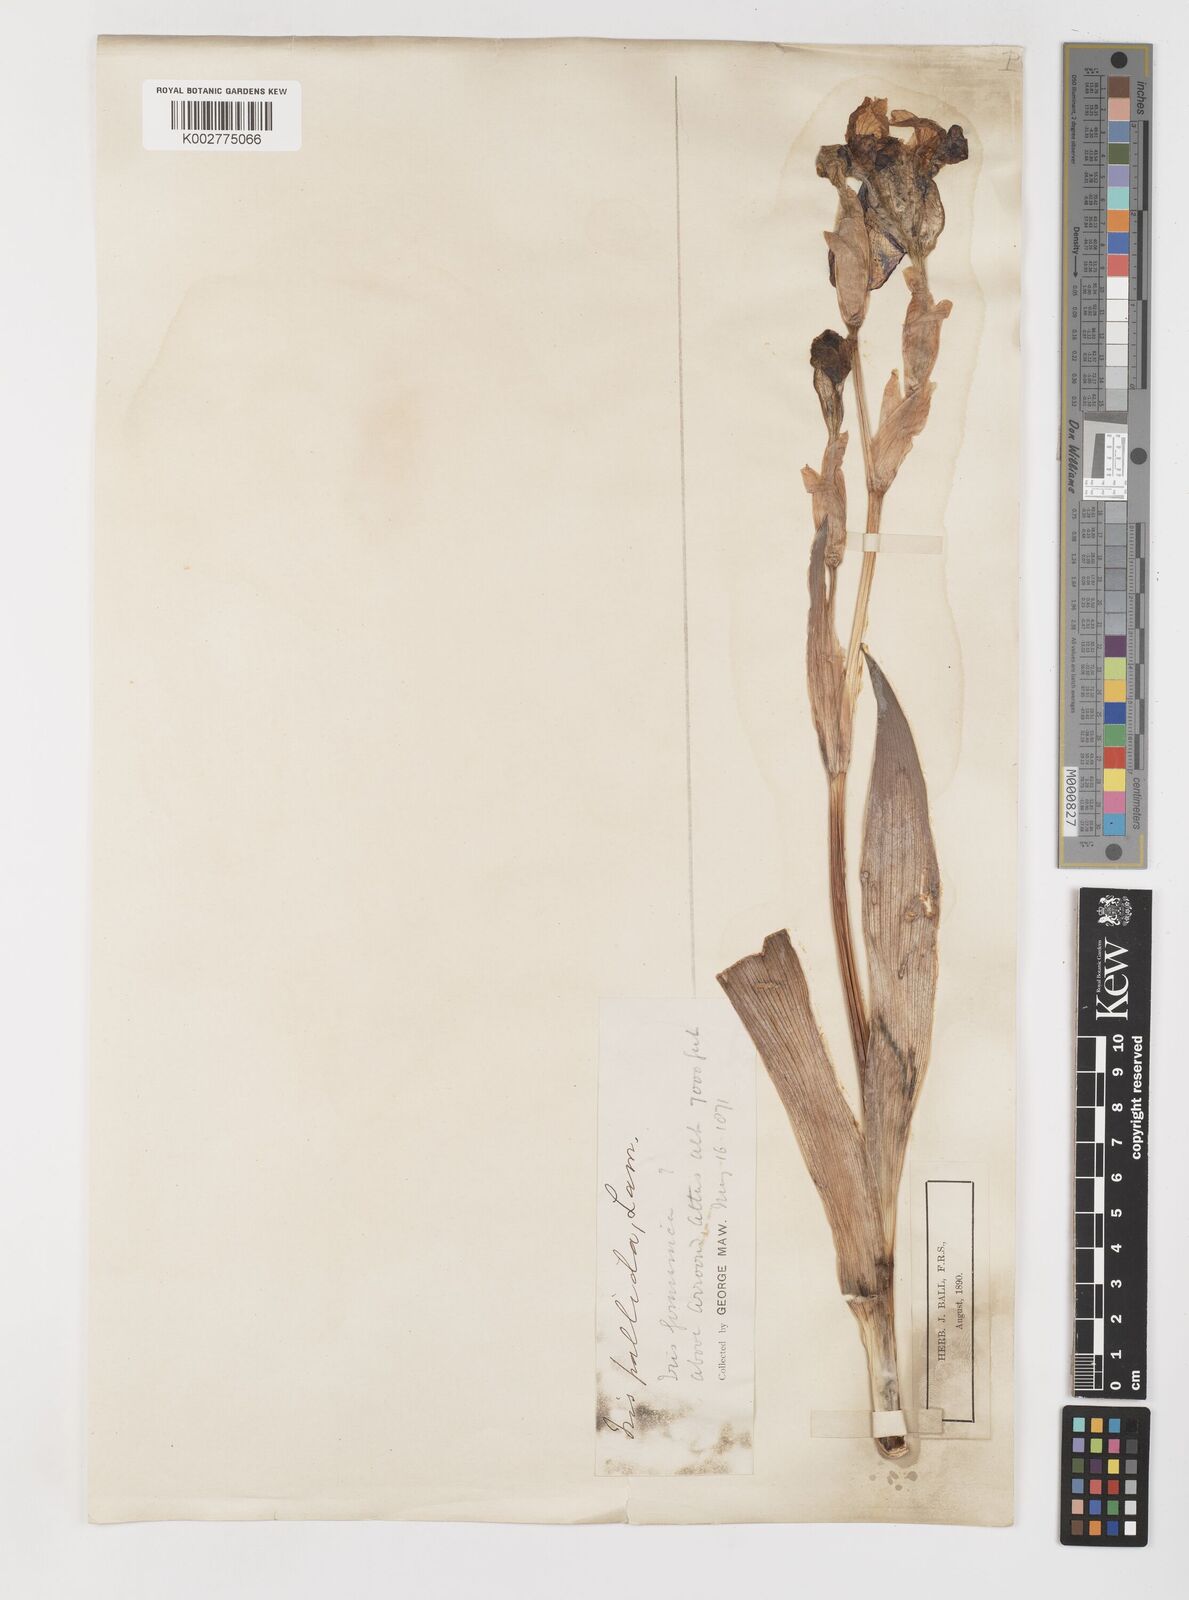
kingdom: Plantae
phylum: Tracheophyta
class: Liliopsida
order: Asparagales
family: Iridaceae
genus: Iris
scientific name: Iris germanica
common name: German iris
